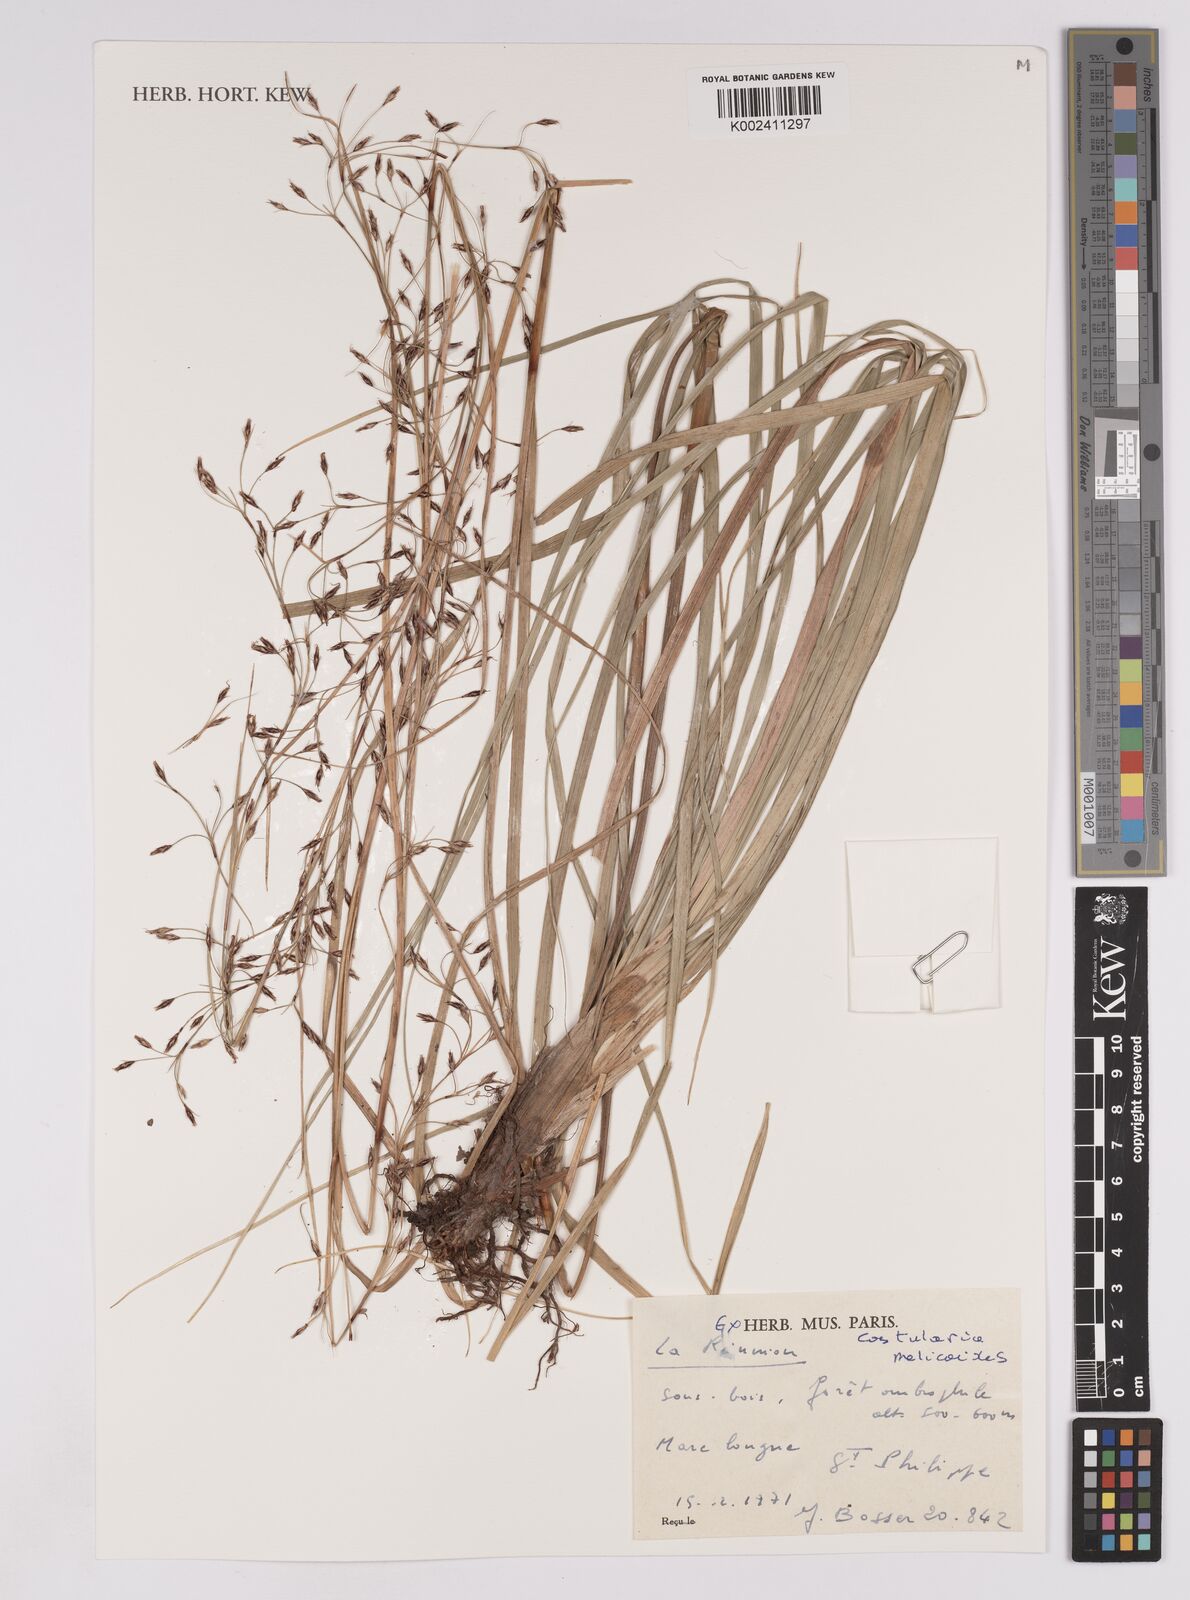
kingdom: Plantae
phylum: Tracheophyta
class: Liliopsida
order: Poales
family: Cyperaceae
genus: Costularia
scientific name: Costularia melicoides
